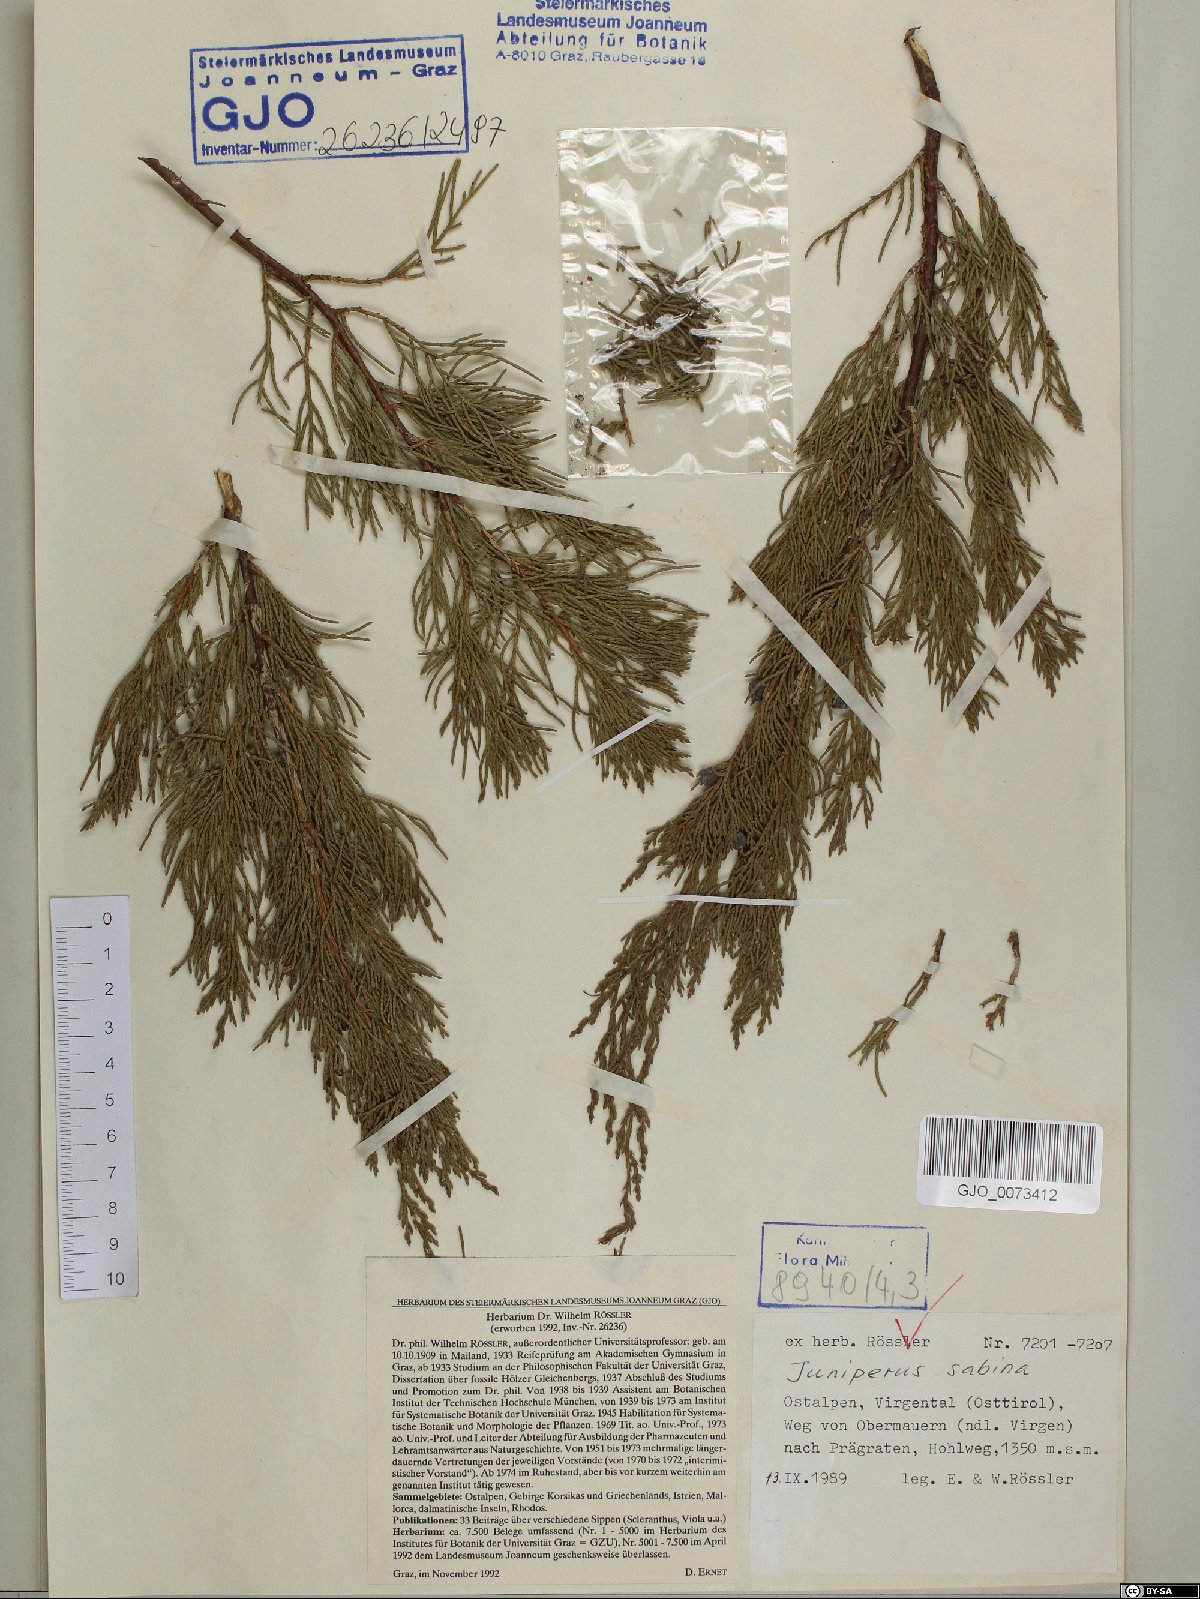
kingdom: Plantae
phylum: Tracheophyta
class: Pinopsida
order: Pinales
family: Cupressaceae
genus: Juniperus
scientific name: Juniperus sabina
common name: Savin
